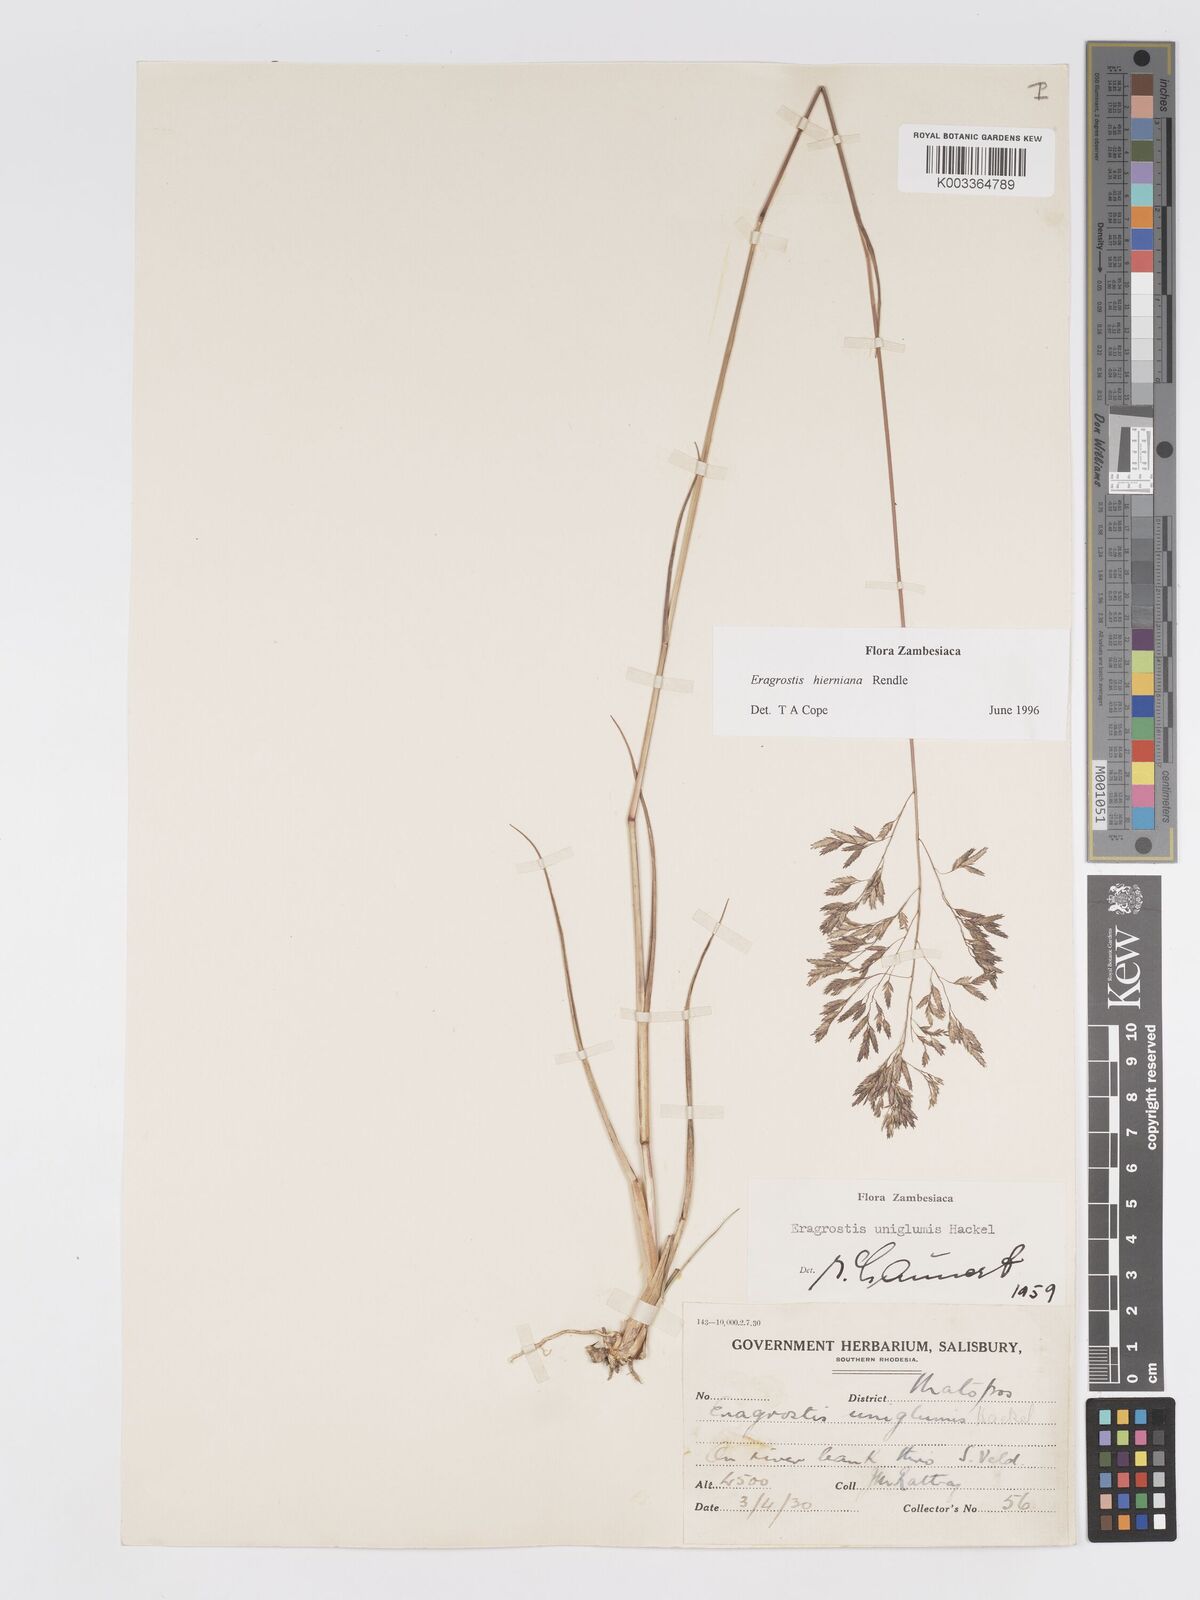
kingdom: Plantae
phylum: Tracheophyta
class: Liliopsida
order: Poales
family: Poaceae
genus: Eragrostis
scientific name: Eragrostis hierniana
